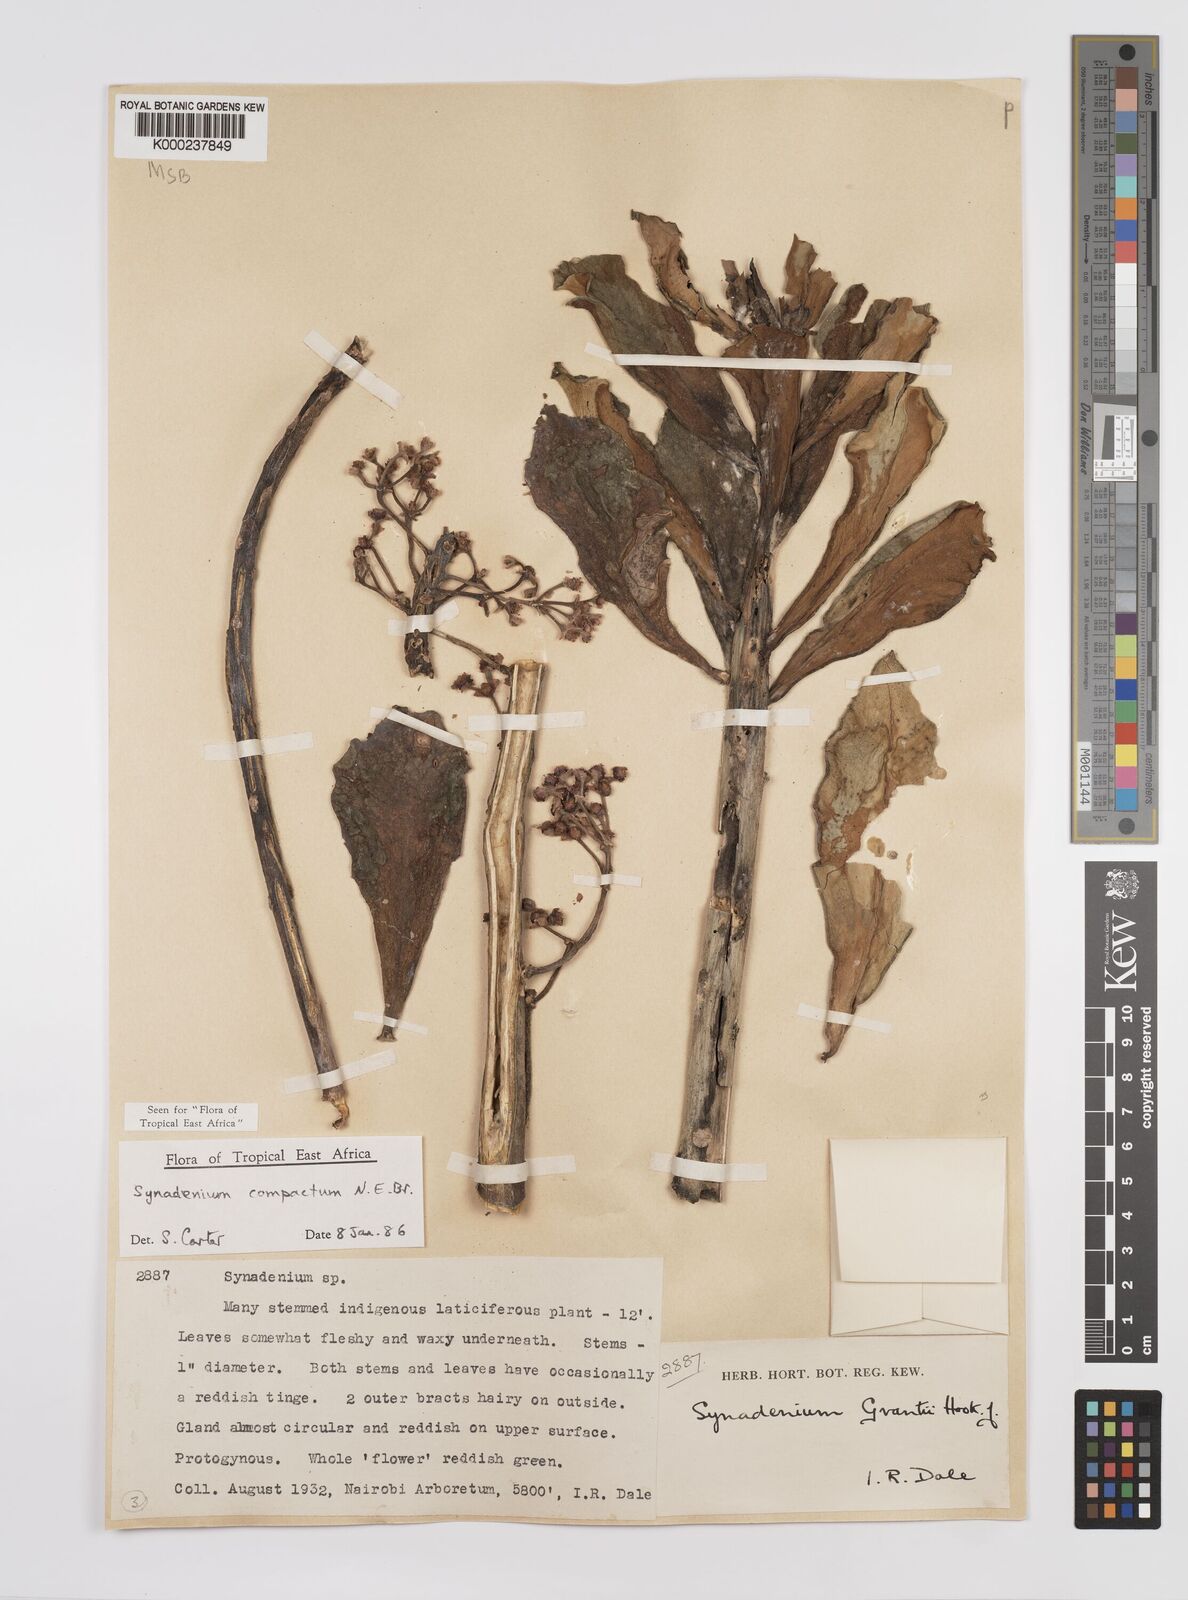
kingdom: Plantae
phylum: Tracheophyta
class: Magnoliopsida
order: Malpighiales
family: Euphorbiaceae
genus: Euphorbia
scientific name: Euphorbia bicompacta
